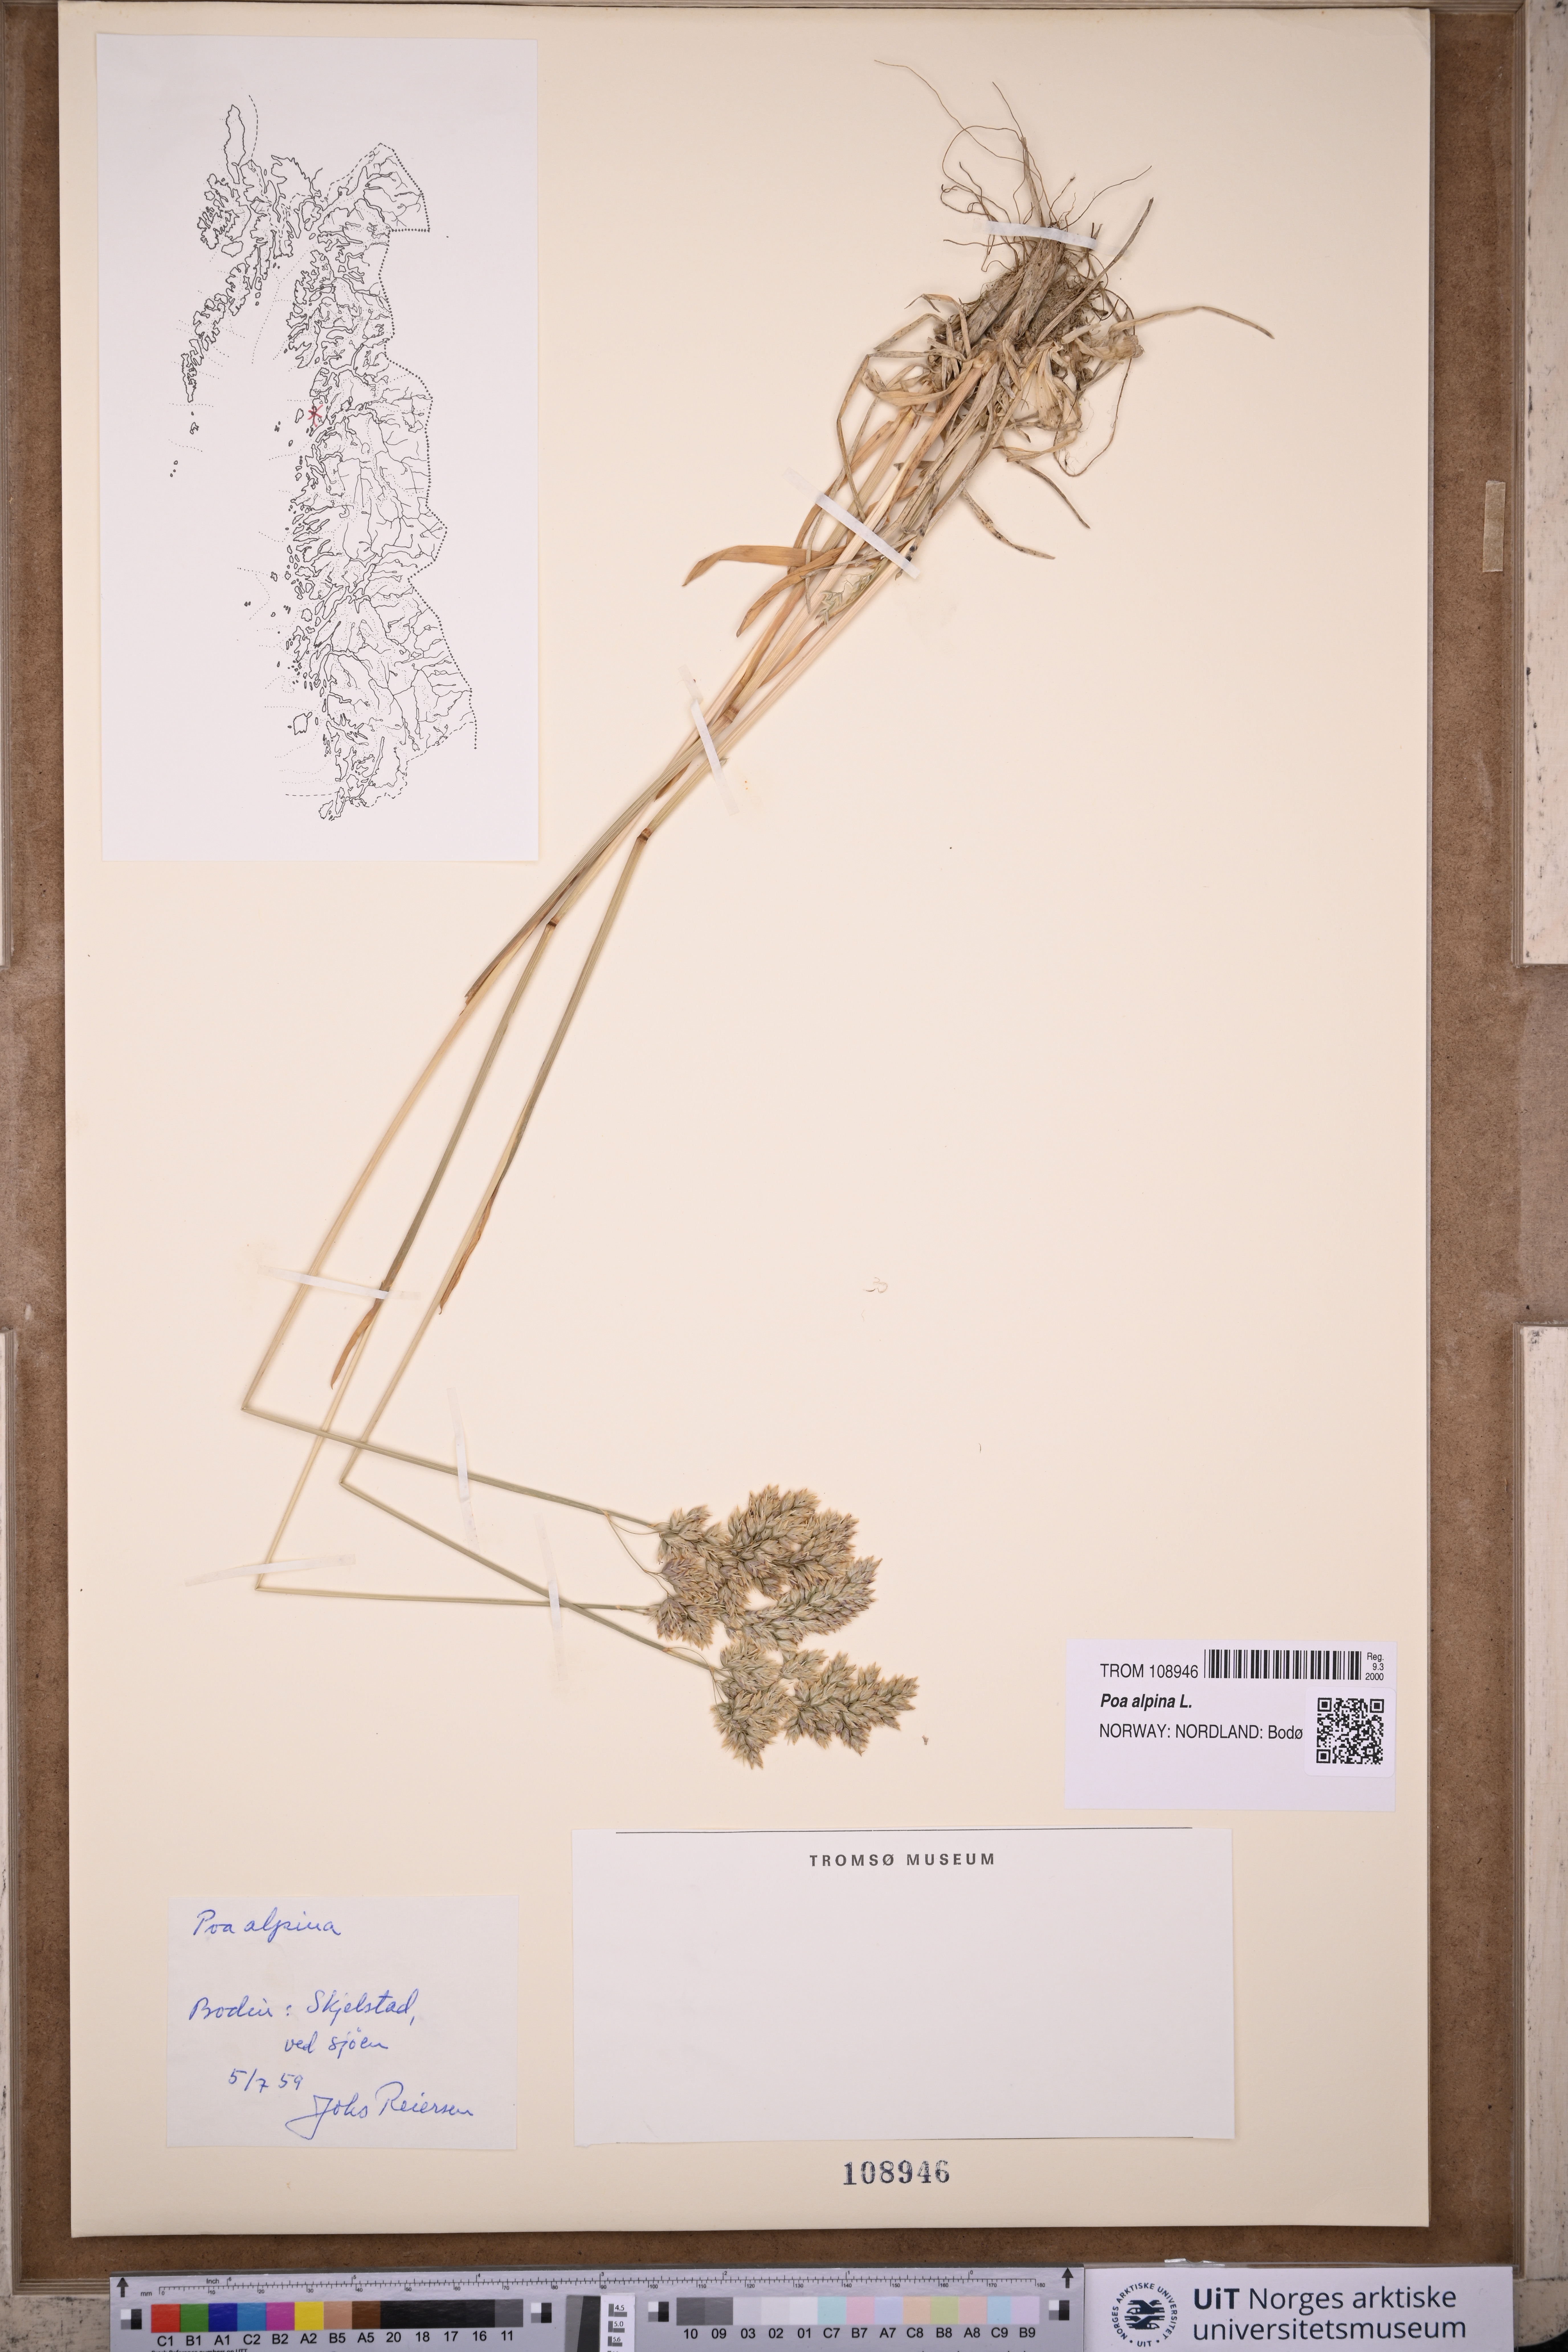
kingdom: Plantae
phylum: Tracheophyta
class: Liliopsida
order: Poales
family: Poaceae
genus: Poa
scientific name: Poa alpina
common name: Alpine bluegrass
